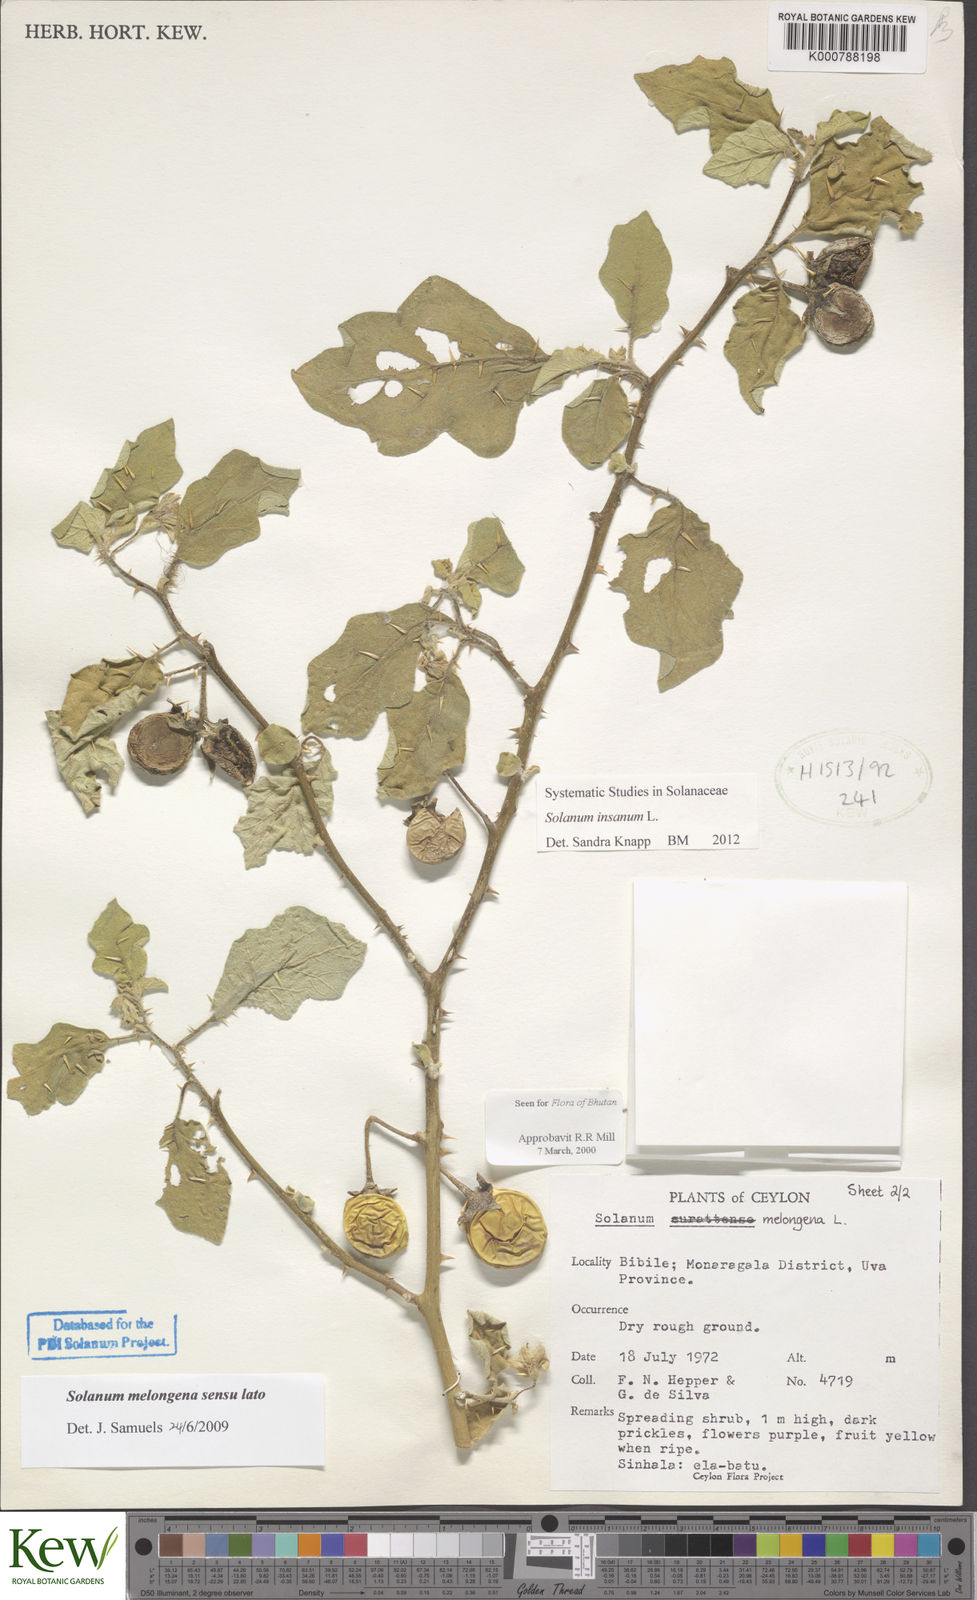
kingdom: Plantae
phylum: Tracheophyta
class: Magnoliopsida
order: Solanales
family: Solanaceae
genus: Solanum
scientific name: Solanum insanum
